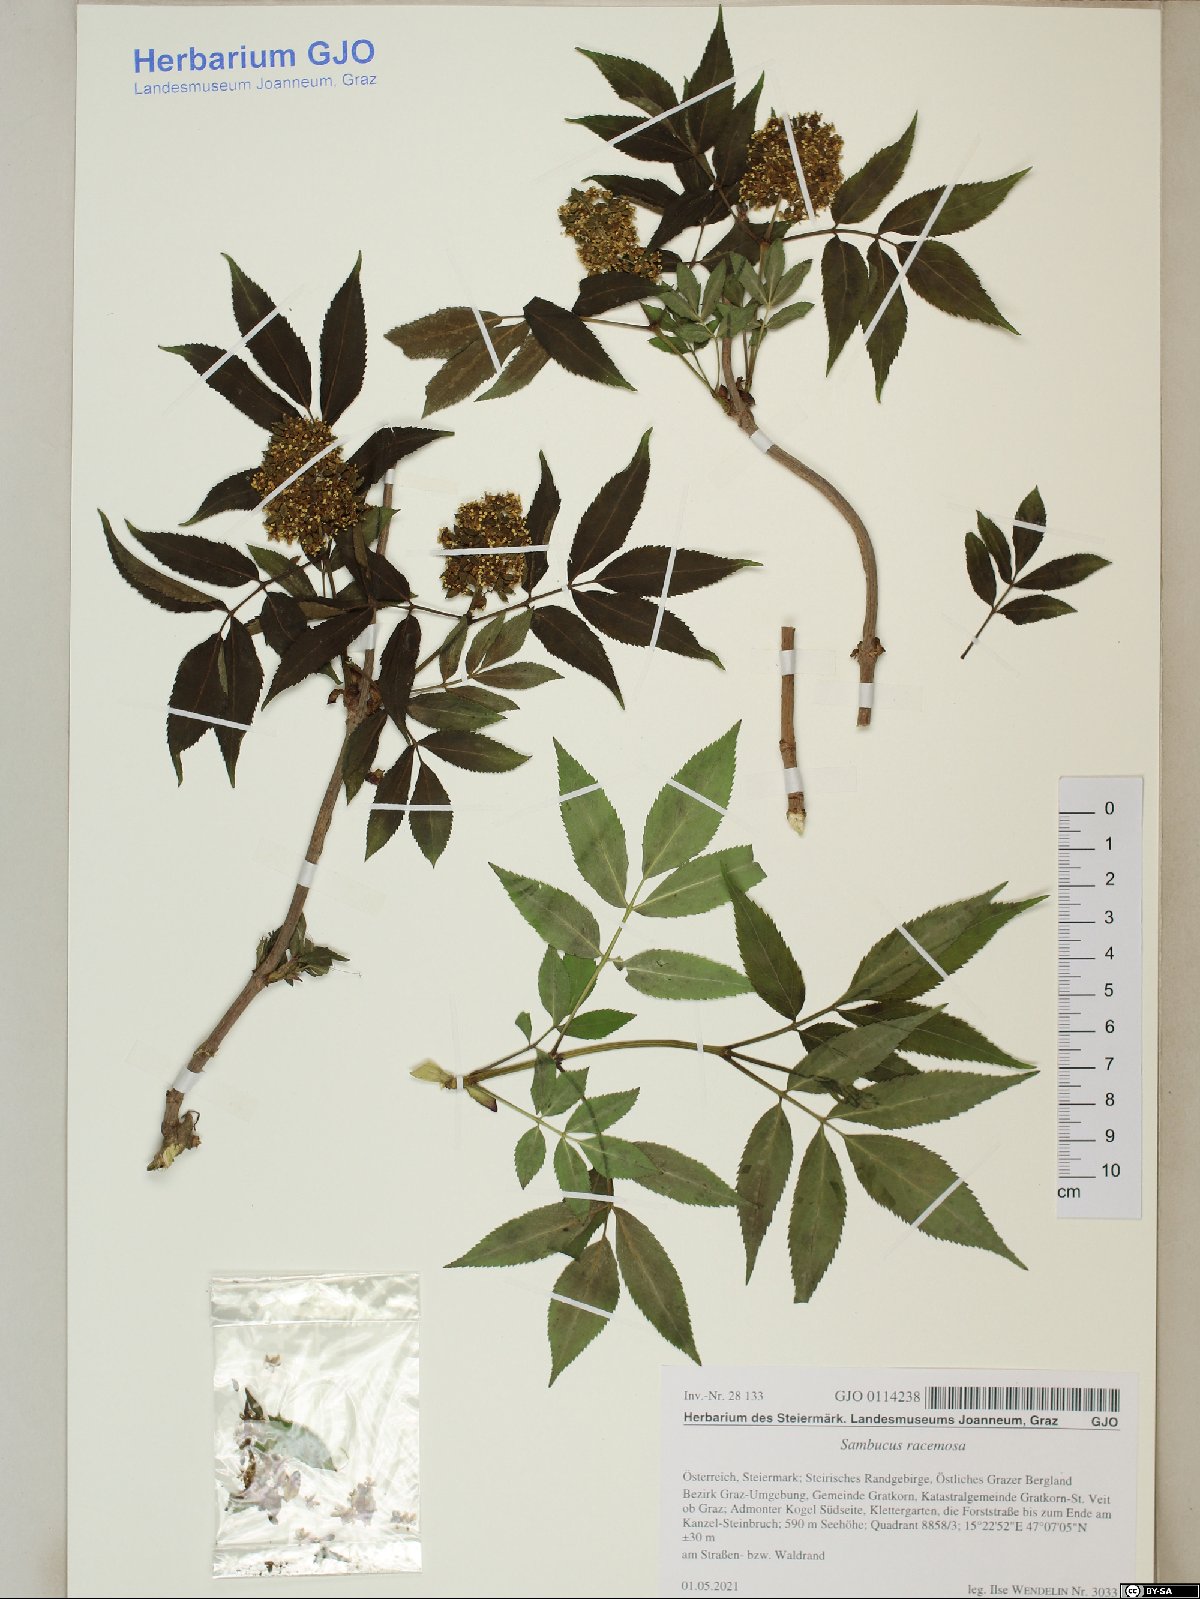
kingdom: Plantae
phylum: Tracheophyta
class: Magnoliopsida
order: Dipsacales
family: Viburnaceae
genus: Sambucus
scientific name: Sambucus racemosa
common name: Red-berried elder
